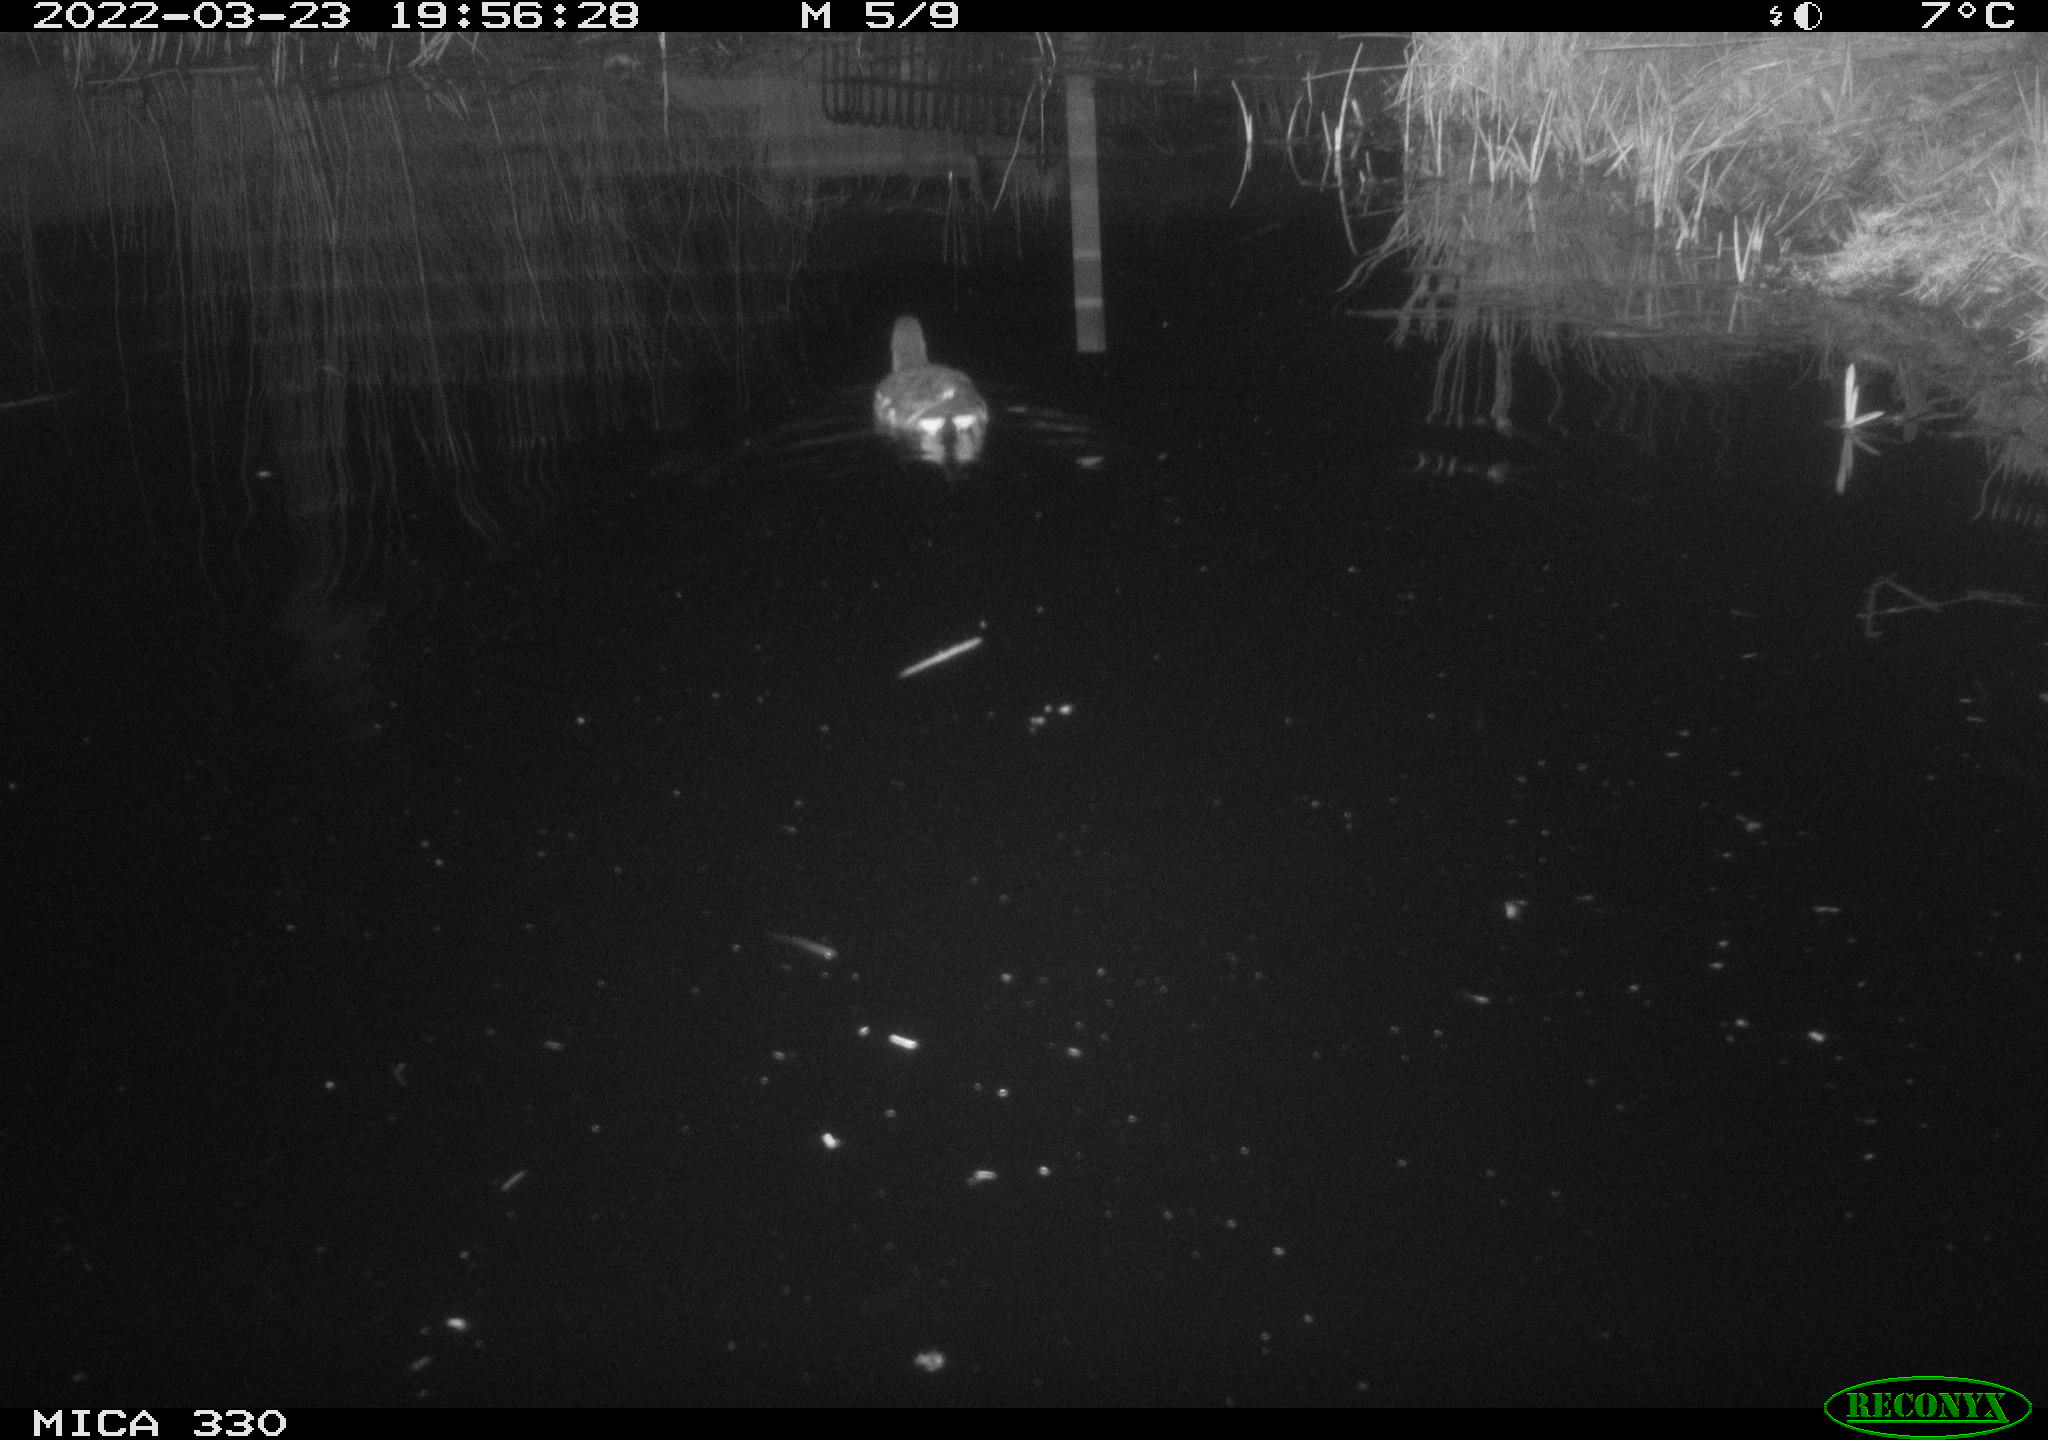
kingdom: Animalia
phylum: Chordata
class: Aves
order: Gruiformes
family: Rallidae
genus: Gallinula
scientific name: Gallinula chloropus
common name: Common moorhen
